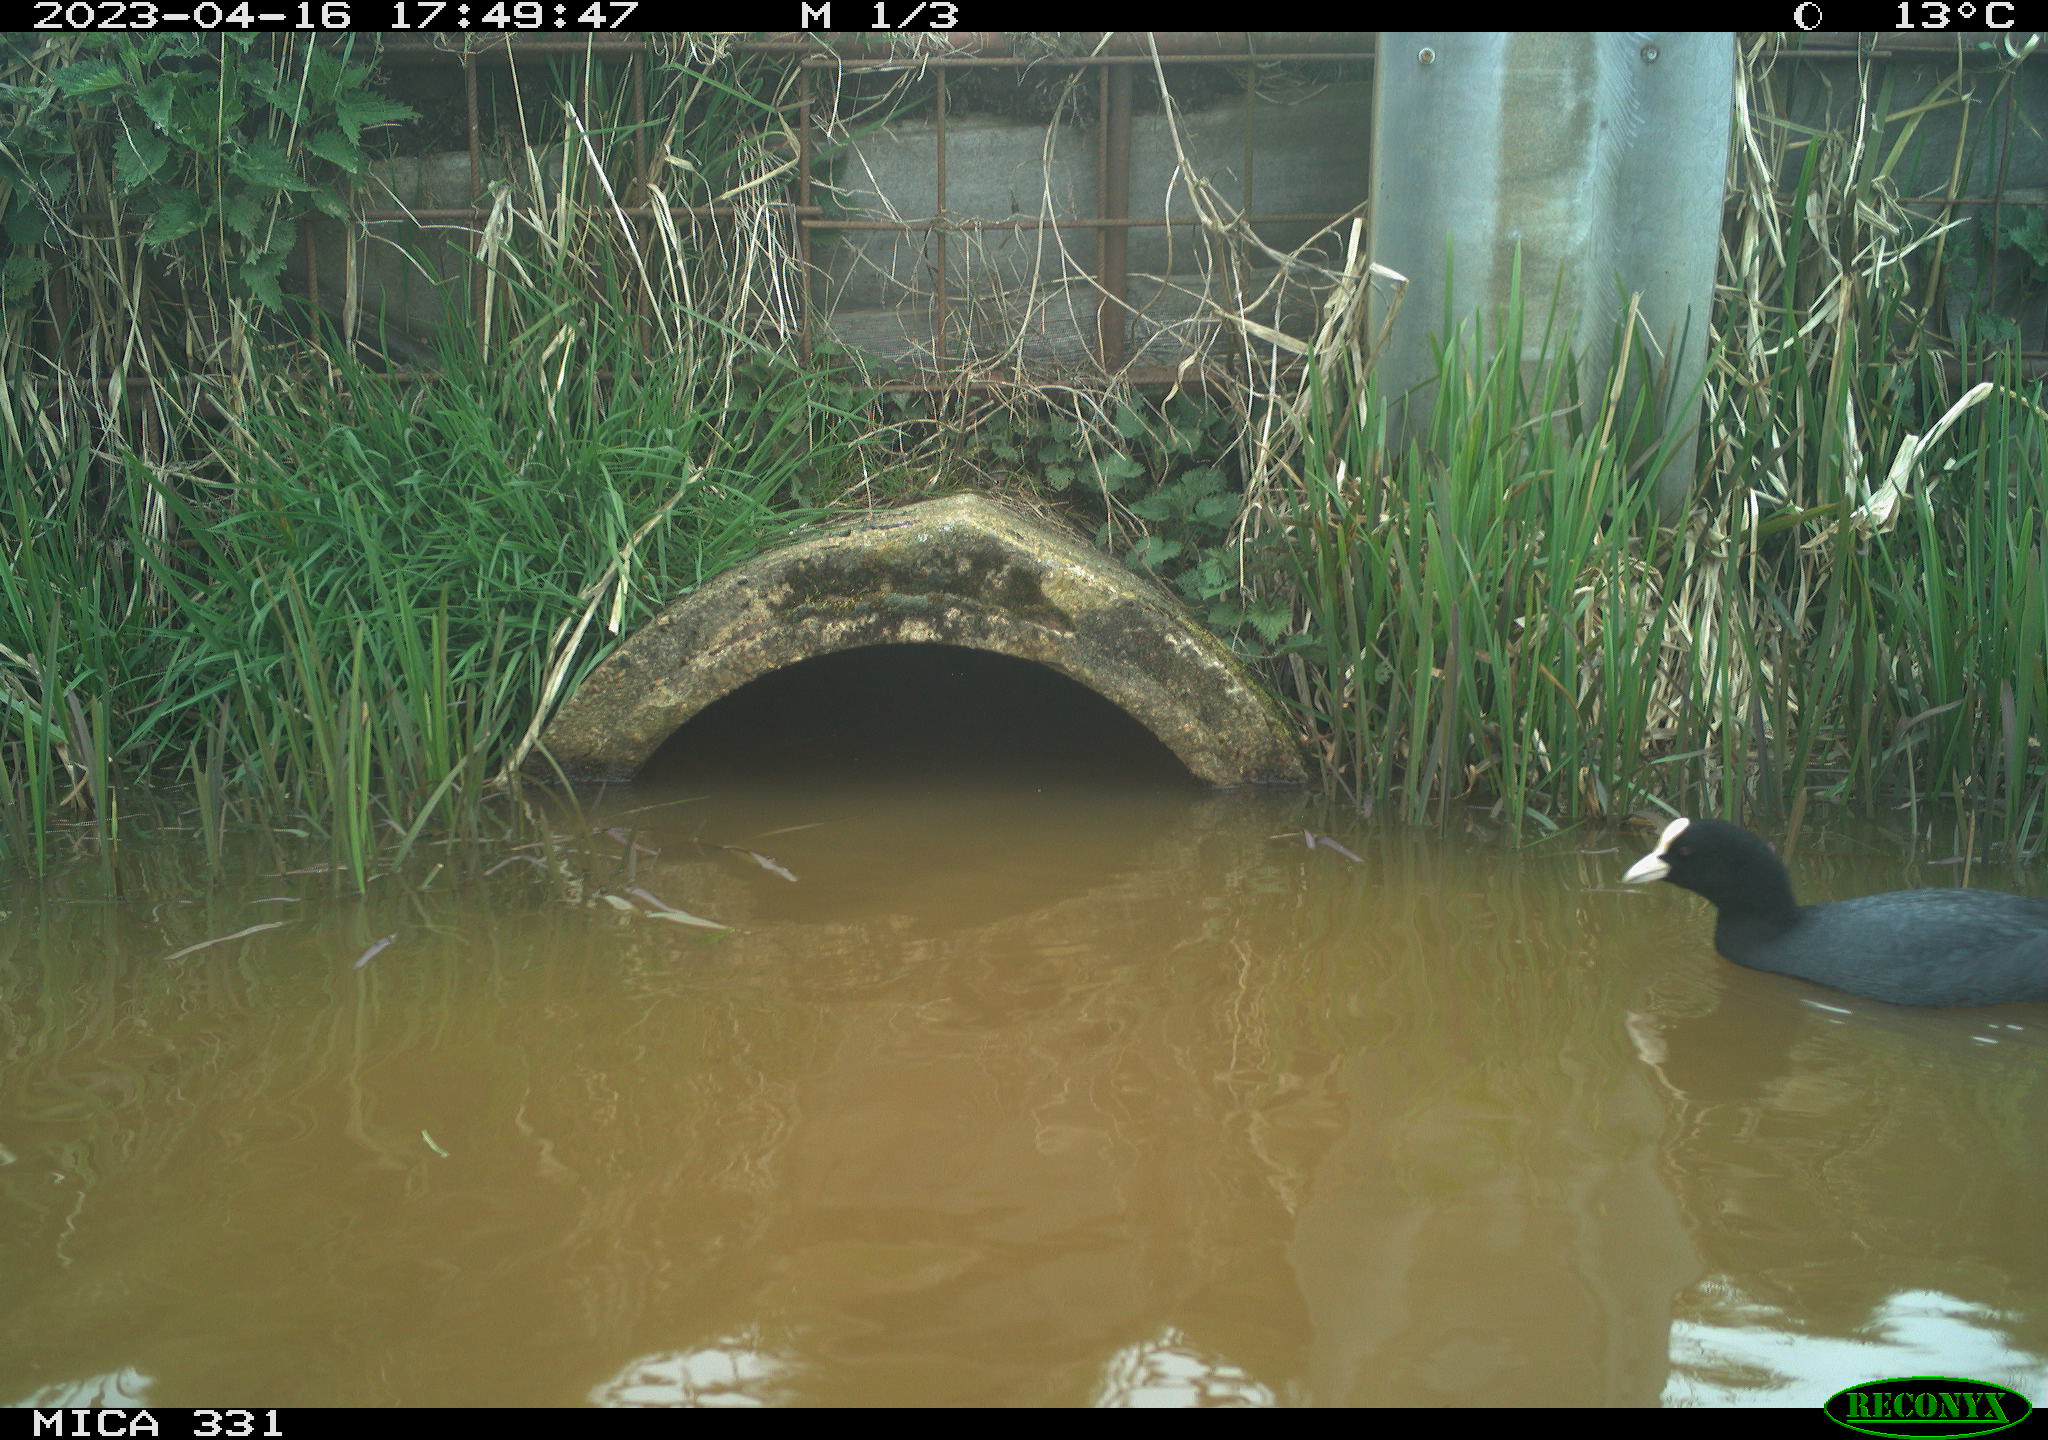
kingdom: Animalia
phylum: Chordata
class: Aves
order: Gruiformes
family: Rallidae
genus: Fulica
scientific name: Fulica atra
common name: Eurasian coot
